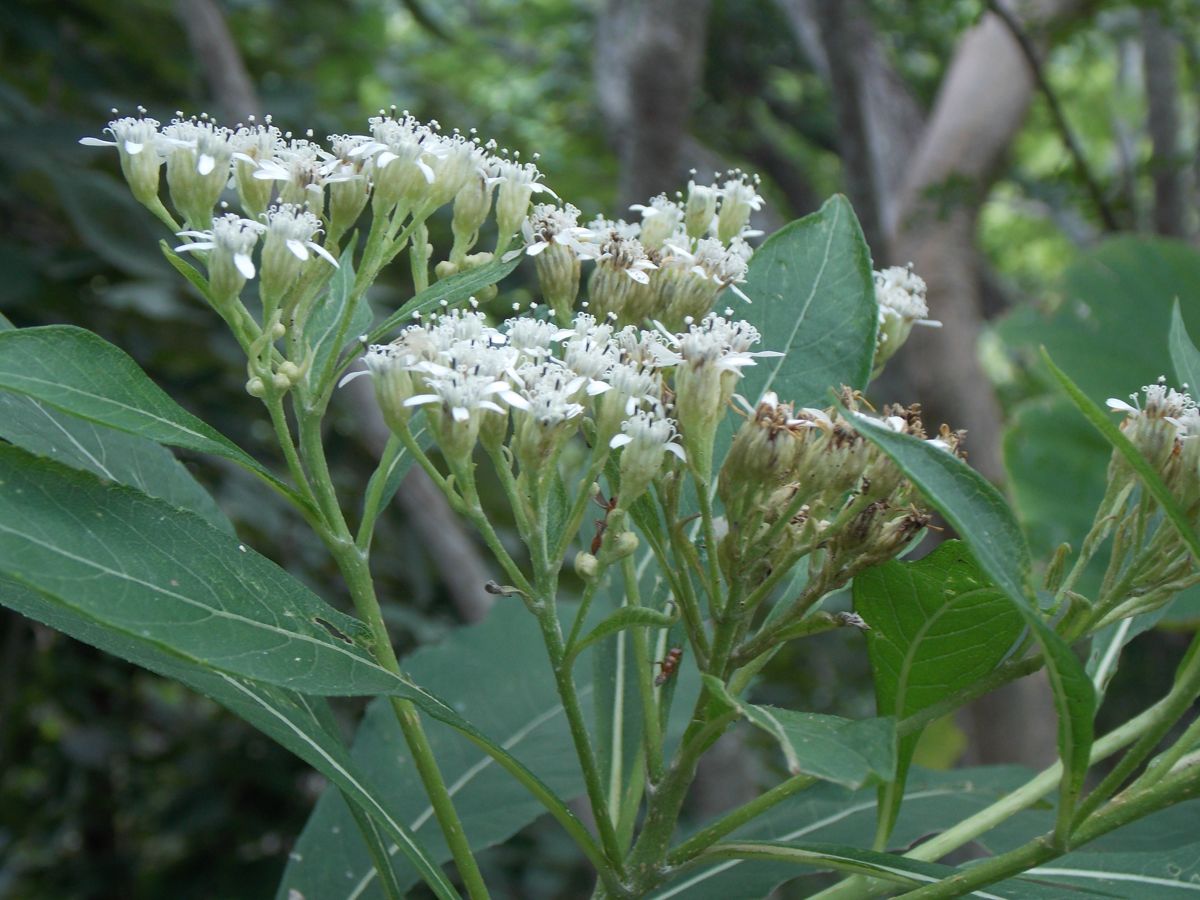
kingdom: Plantae
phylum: Tracheophyta
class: Magnoliopsida
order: Asterales
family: Asteraceae
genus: Verbesina
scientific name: Verbesina guatemalensis
